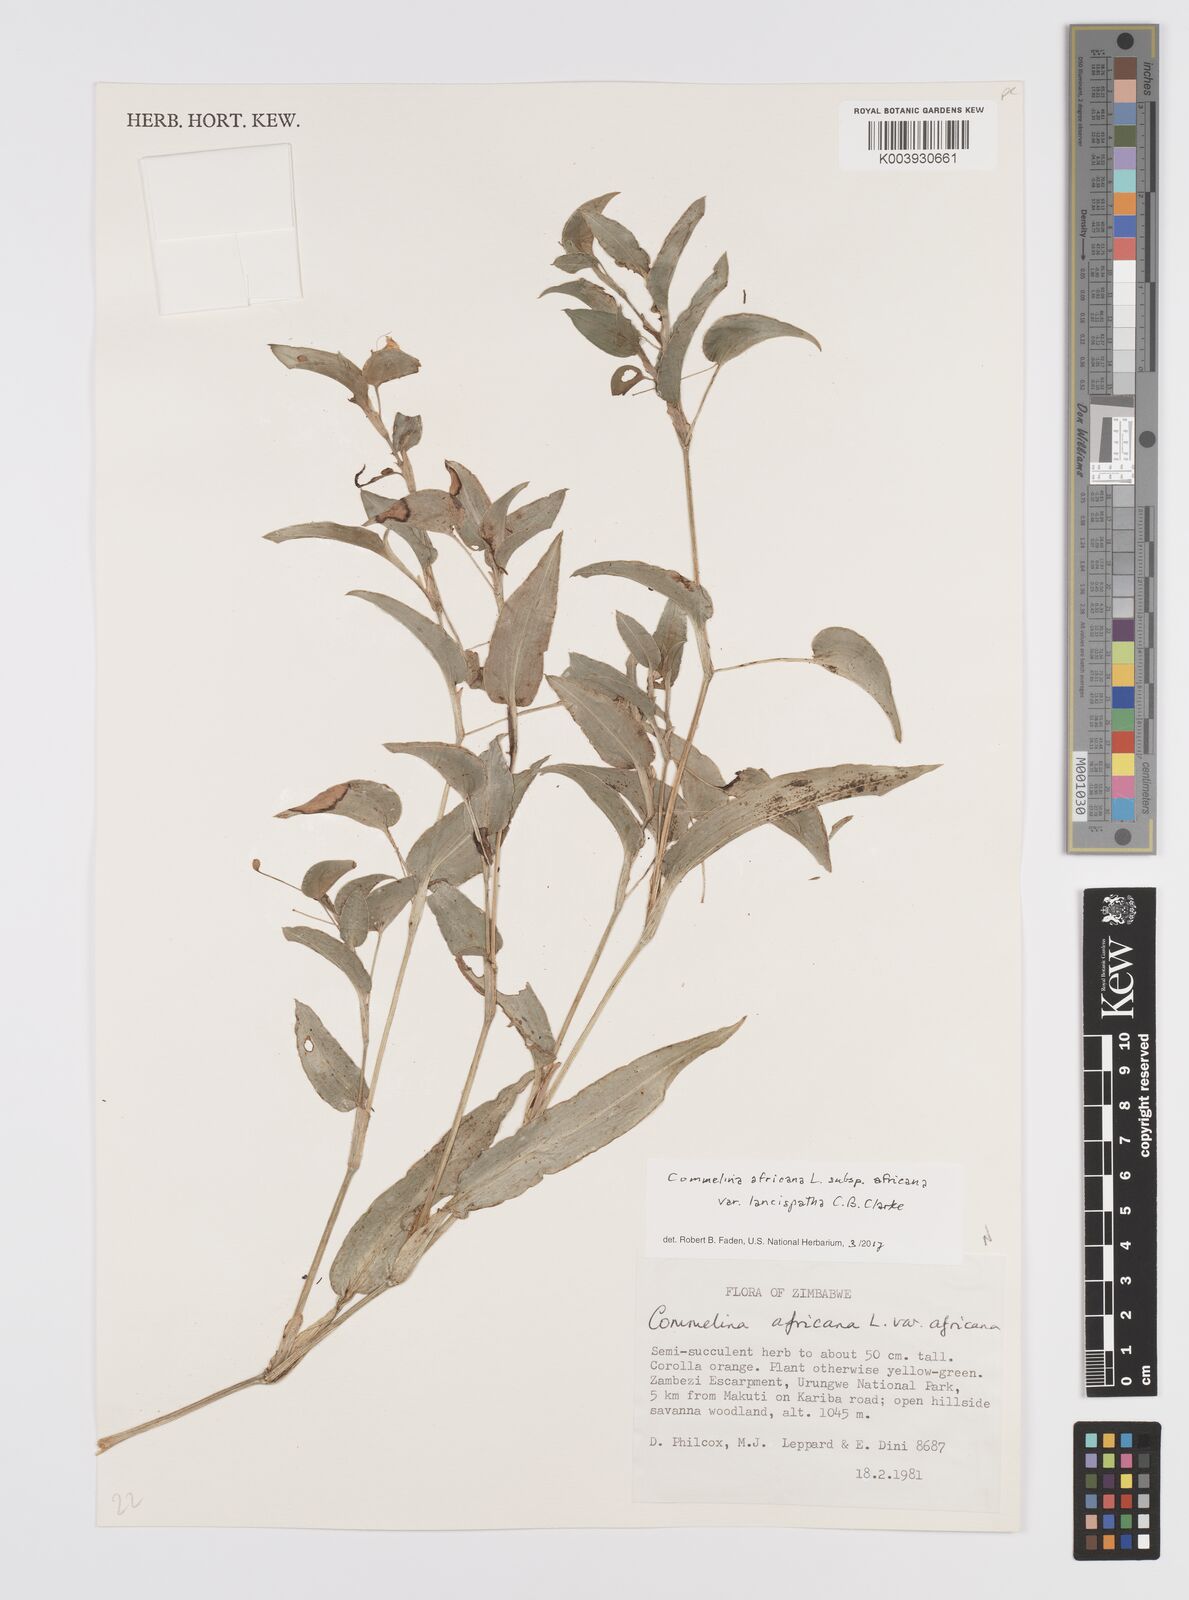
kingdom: Plantae
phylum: Tracheophyta
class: Liliopsida
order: Commelinales
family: Commelinaceae
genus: Commelina
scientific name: Commelina africana
